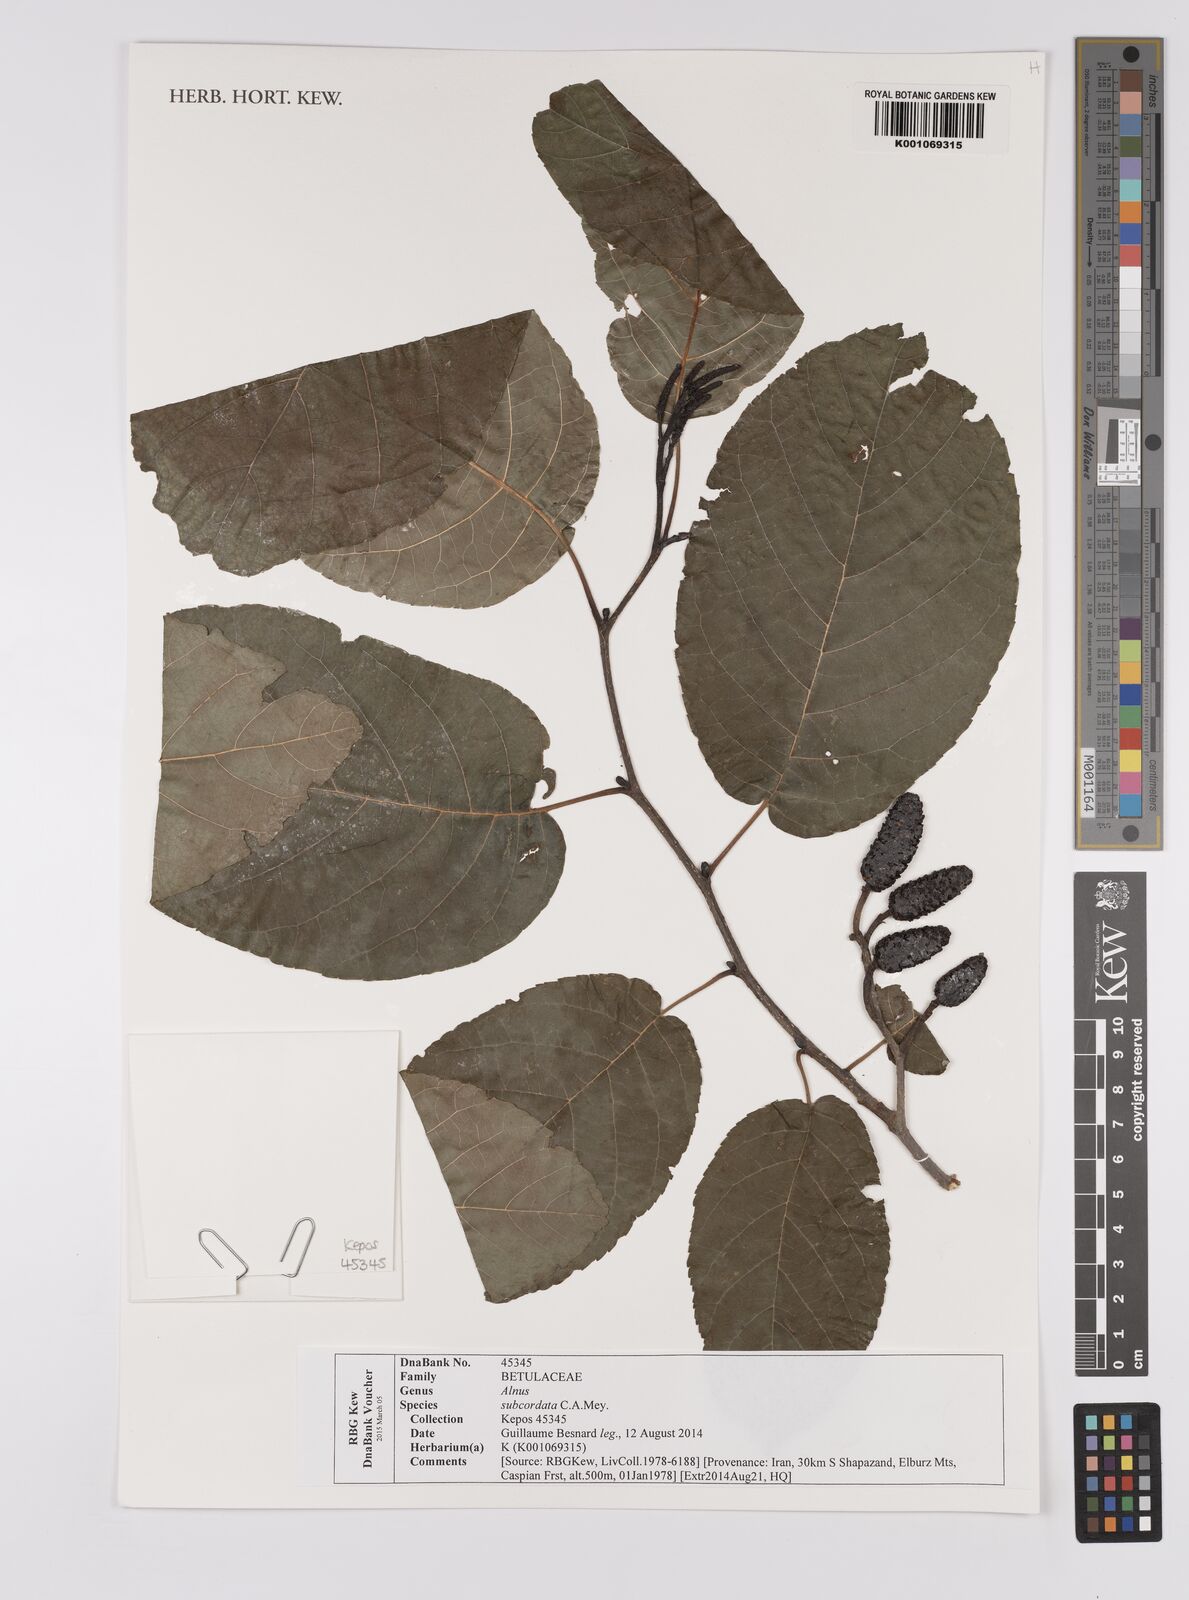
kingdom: Plantae
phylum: Tracheophyta
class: Magnoliopsida
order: Fagales
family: Betulaceae
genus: Alnus
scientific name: Alnus subcordata
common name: Caucasian alder
